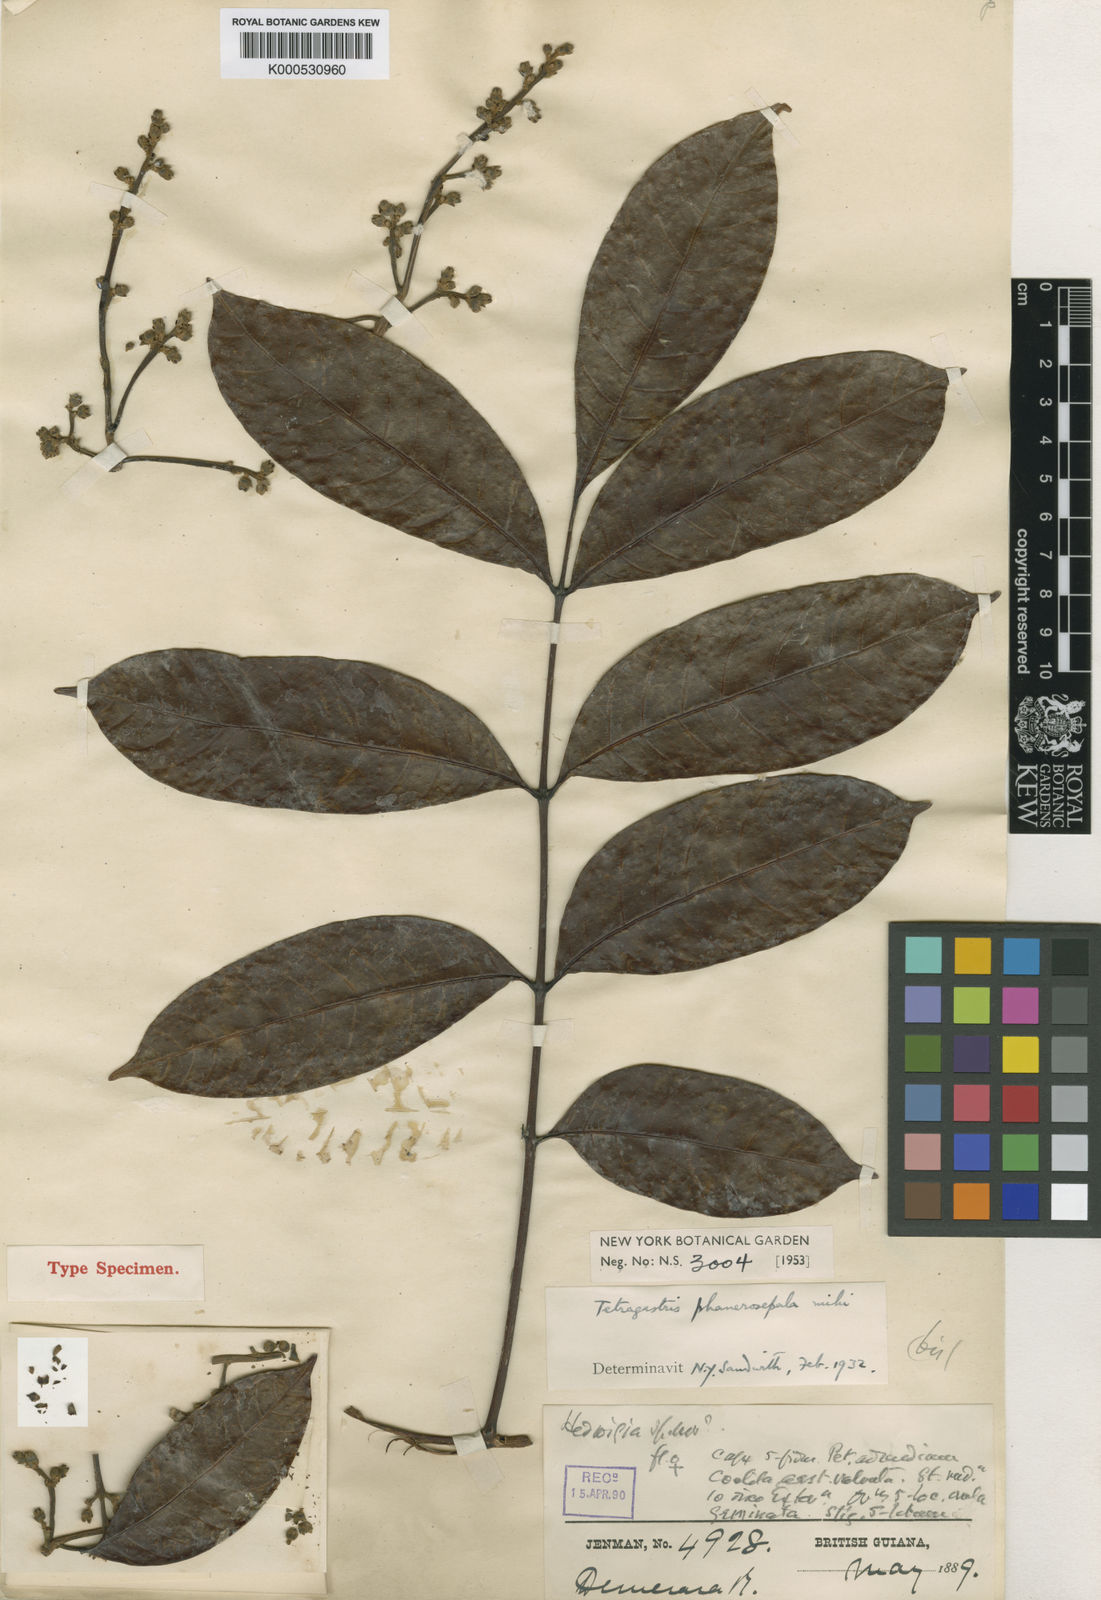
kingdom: Plantae
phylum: Tracheophyta
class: Magnoliopsida
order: Sapindales
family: Burseraceae
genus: Tetragastris
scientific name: Tetragastris altissima
